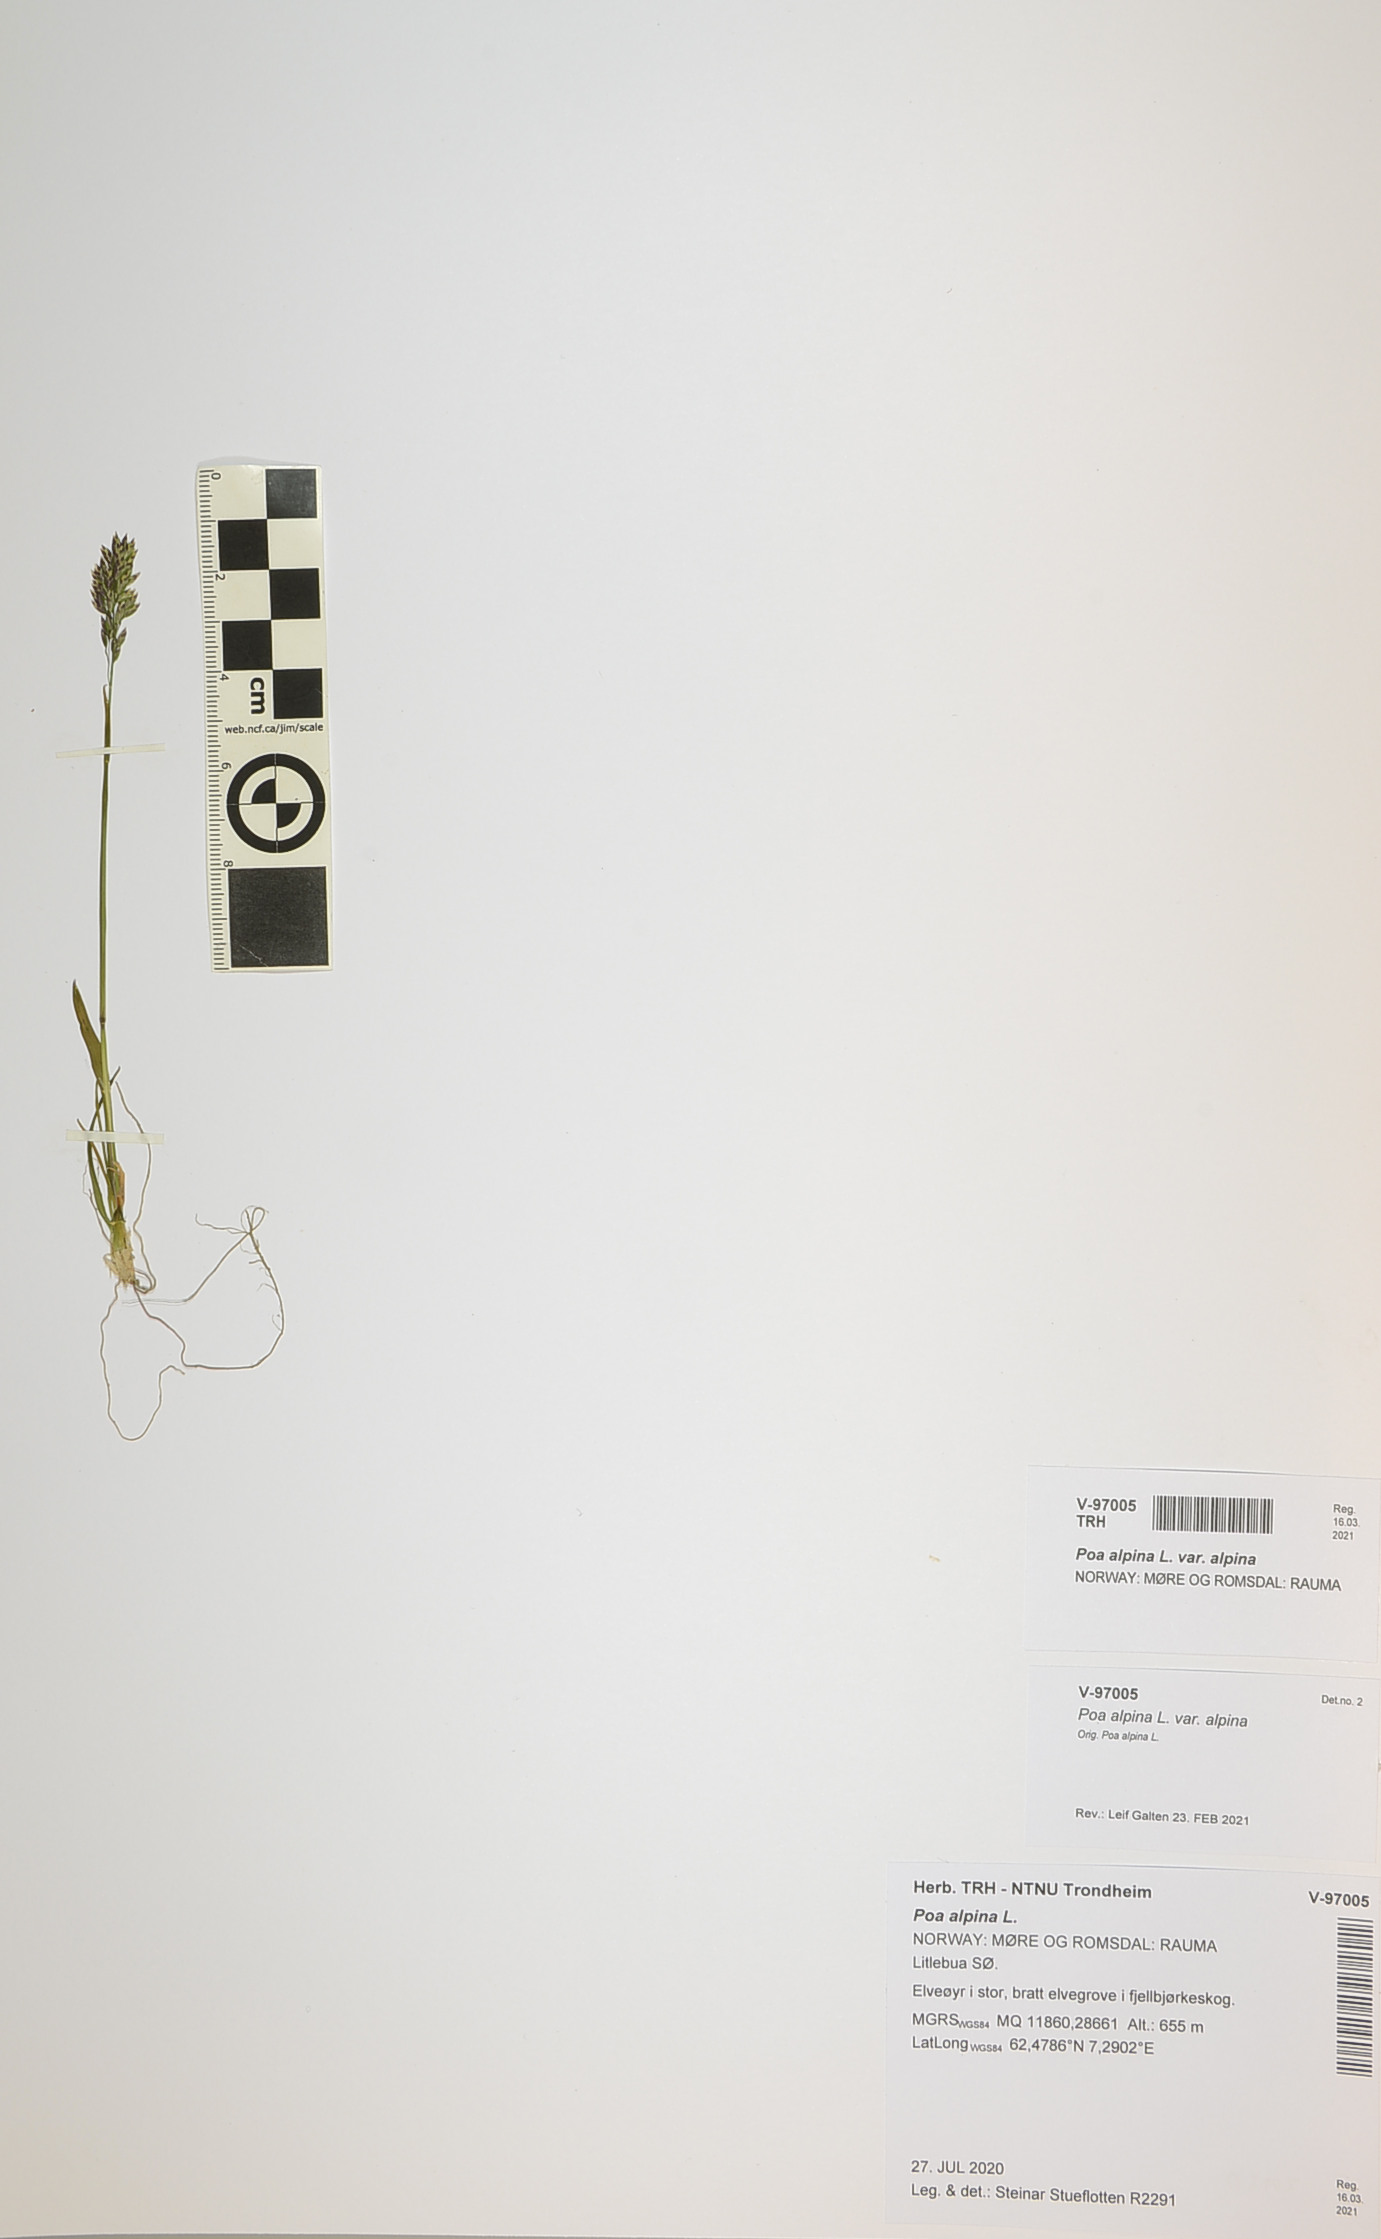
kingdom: Plantae
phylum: Tracheophyta
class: Liliopsida
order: Poales
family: Poaceae
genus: Poa
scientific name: Poa alpina
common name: Alpine bluegrass
